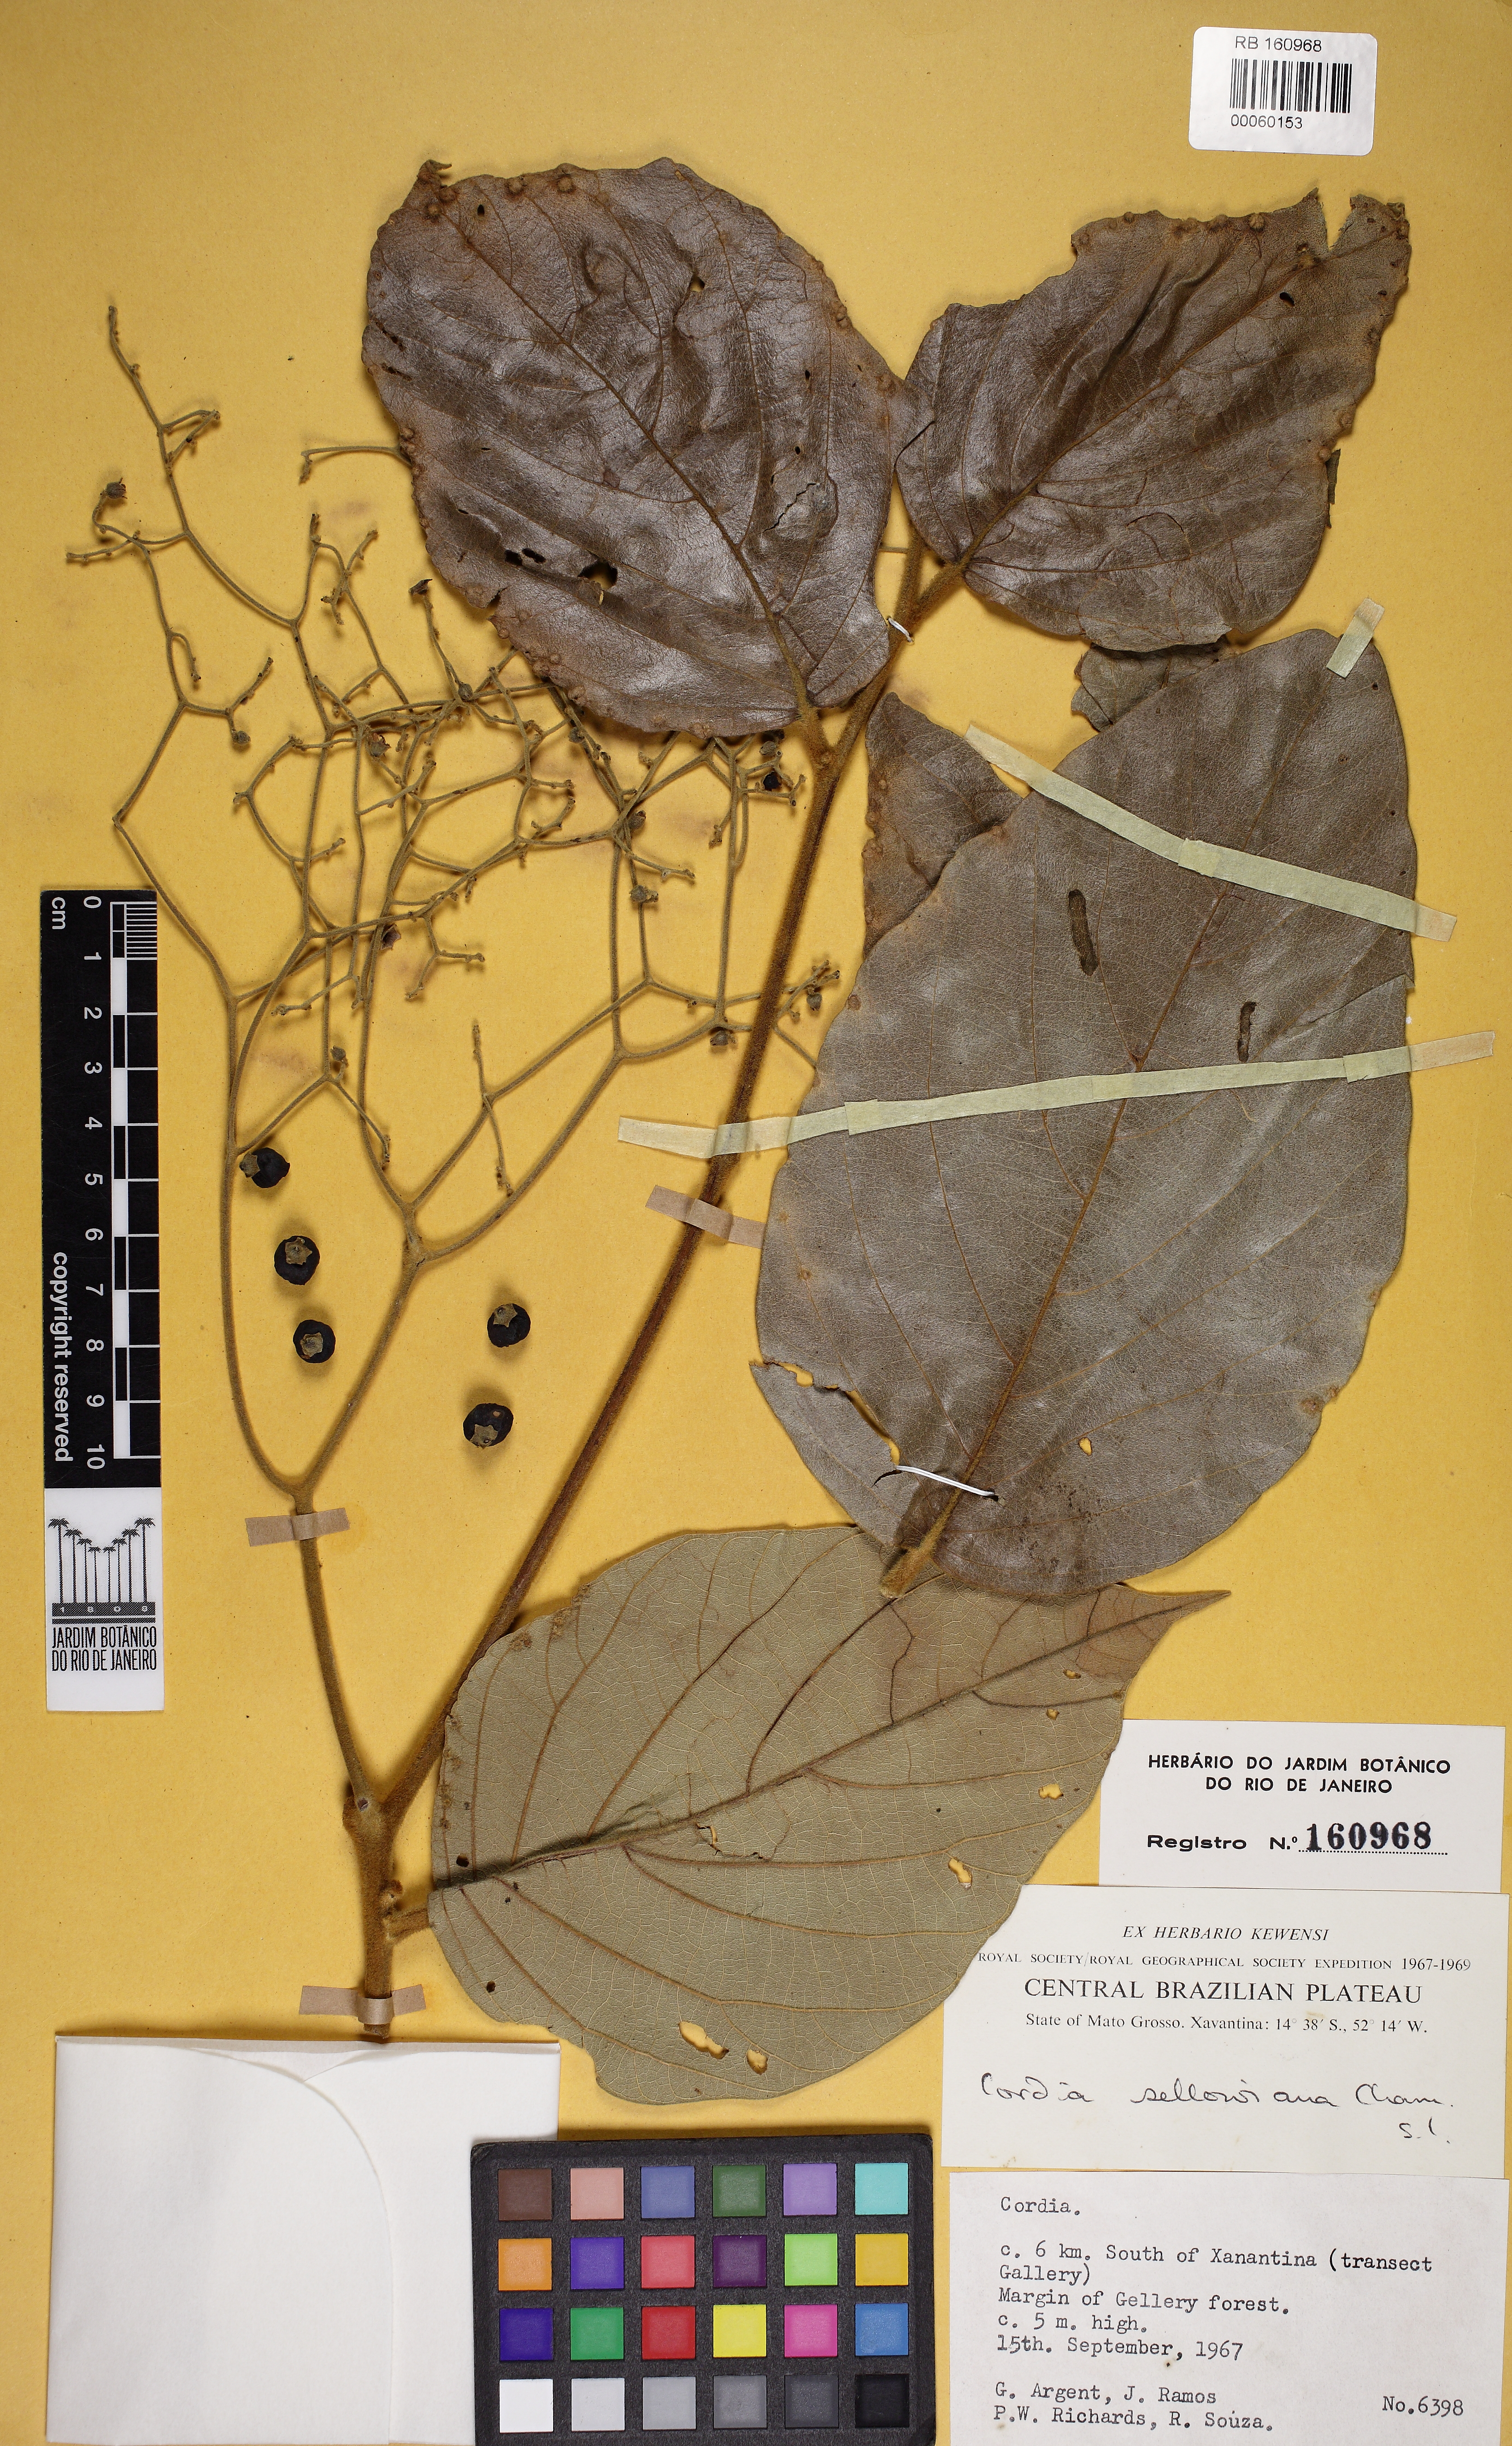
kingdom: Plantae
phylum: Tracheophyta
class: Magnoliopsida
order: Boraginales
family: Cordiaceae
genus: Cordia
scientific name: Cordia sellowiana
